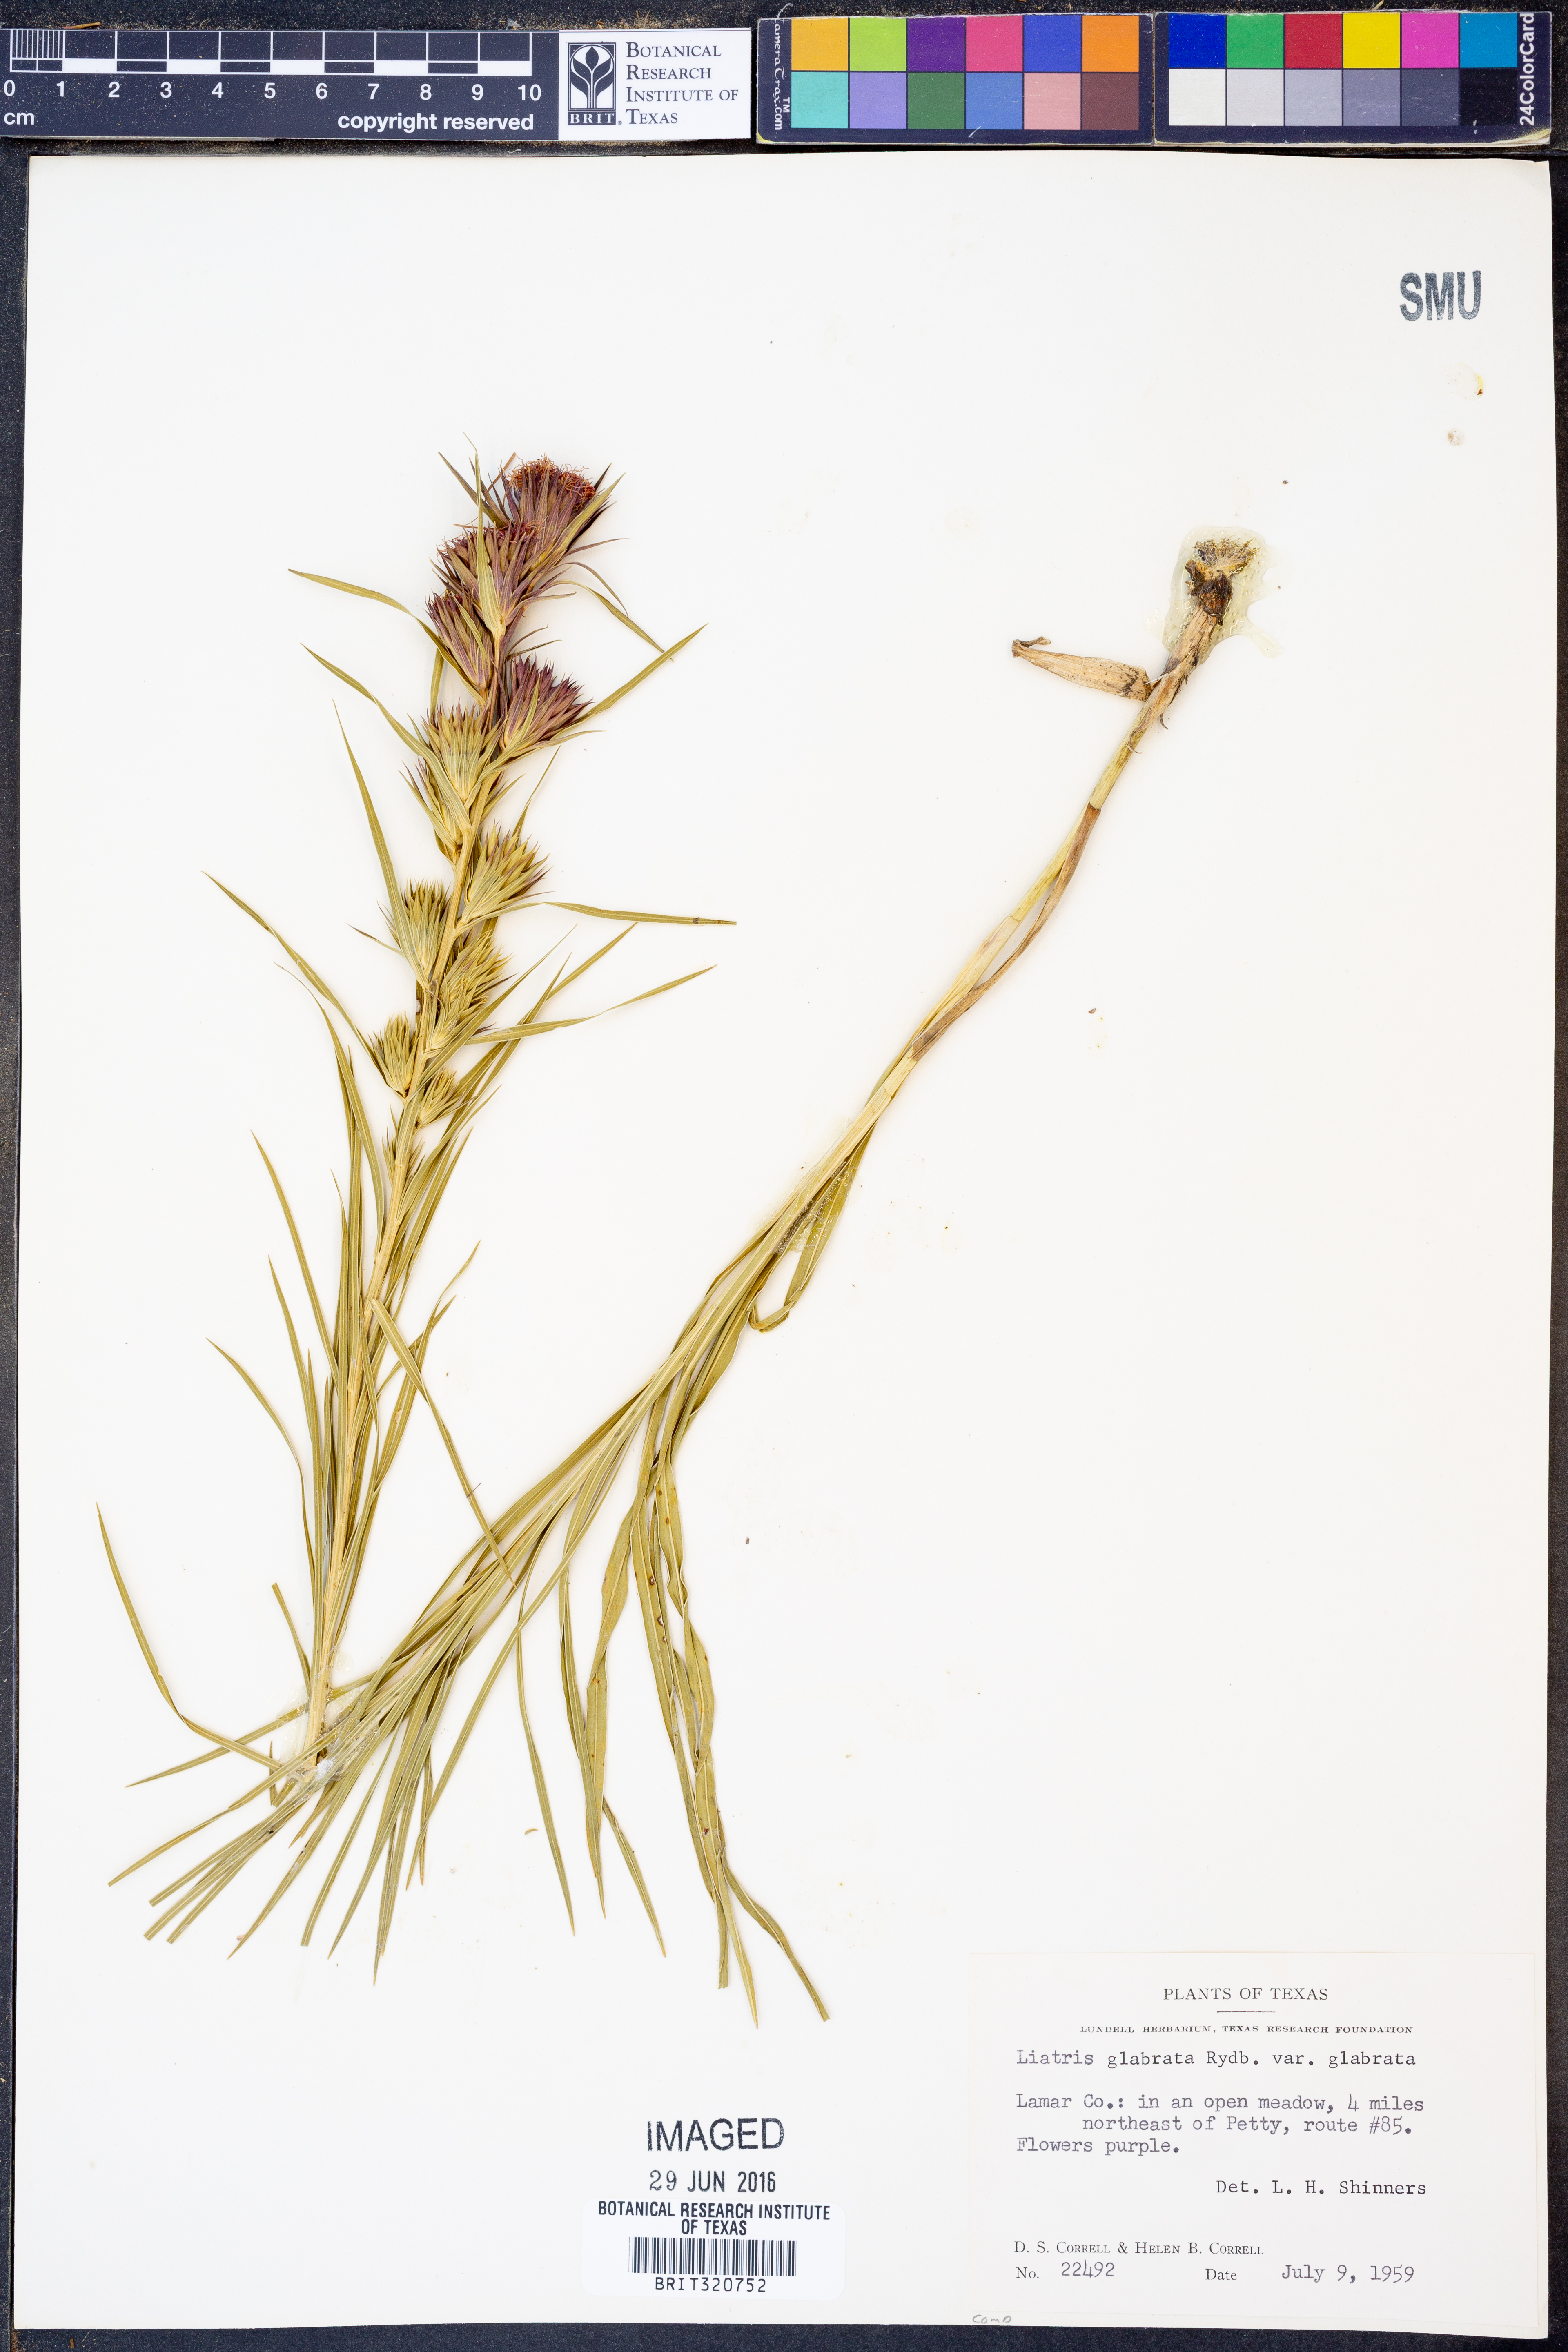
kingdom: Plantae
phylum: Tracheophyta
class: Magnoliopsida
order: Asterales
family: Asteraceae
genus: Liatris
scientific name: Liatris squarrosa
